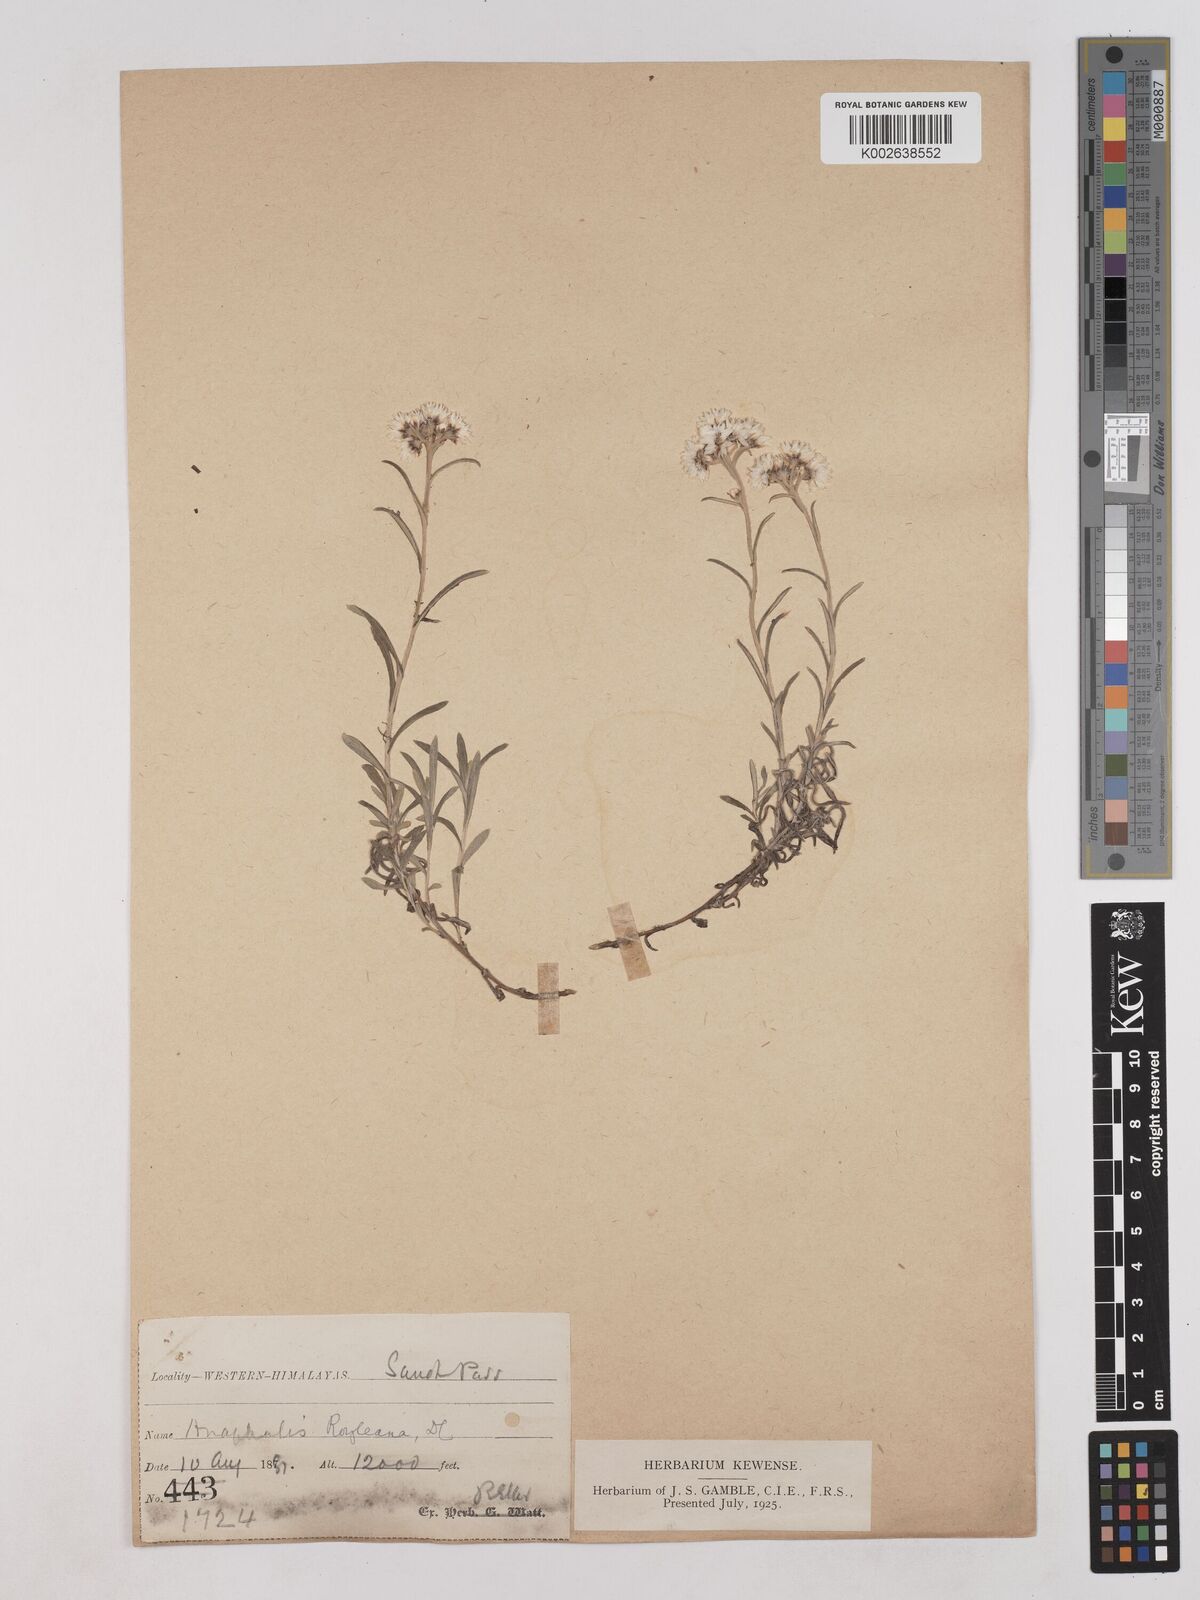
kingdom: Plantae
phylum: Tracheophyta
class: Magnoliopsida
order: Asterales
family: Asteraceae
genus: Anaphalis
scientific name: Anaphalis royleana
